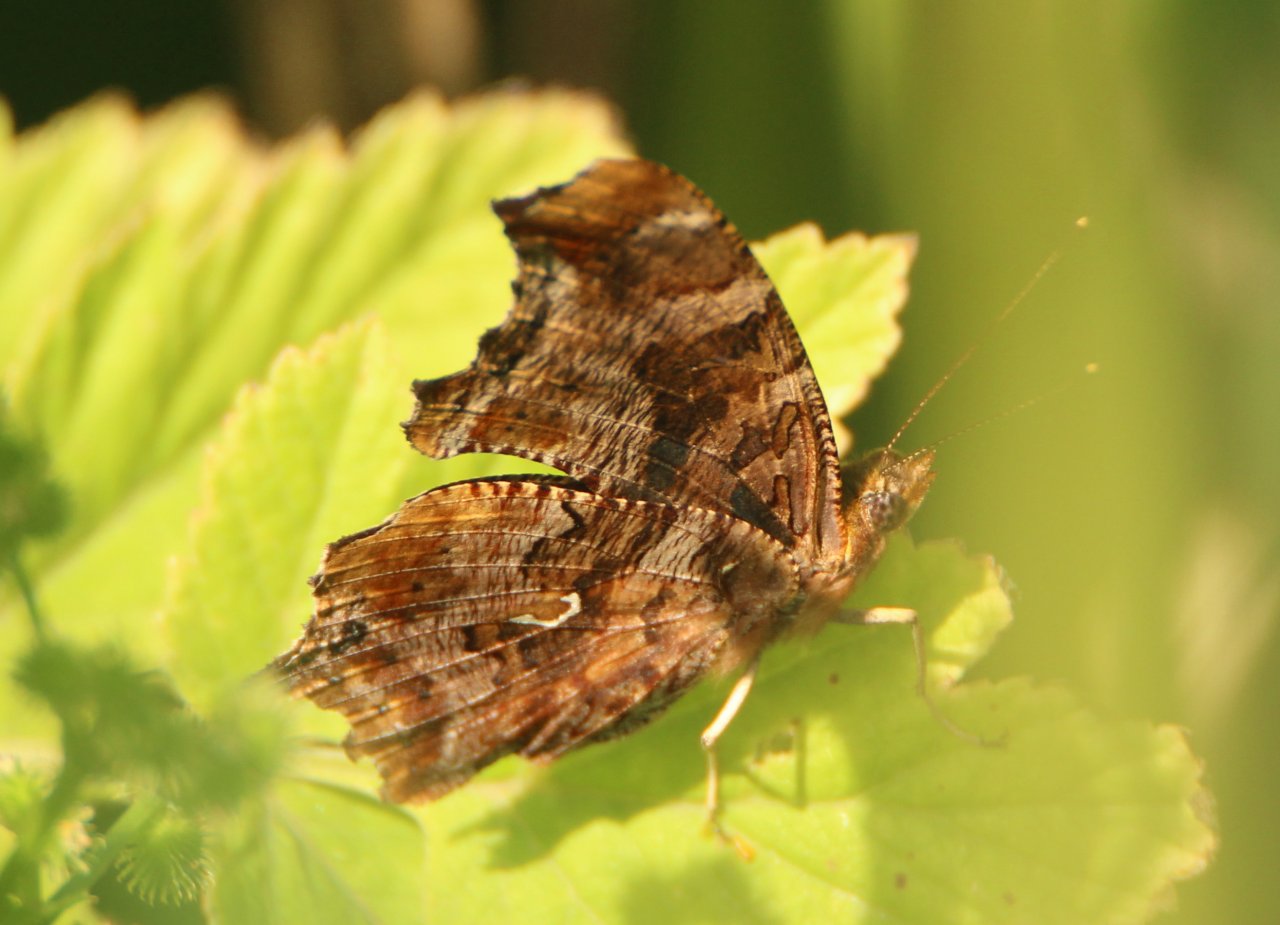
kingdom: Animalia
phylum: Arthropoda
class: Insecta
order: Lepidoptera
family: Nymphalidae
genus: Polygonia
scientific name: Polygonia comma
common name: Eastern Comma
